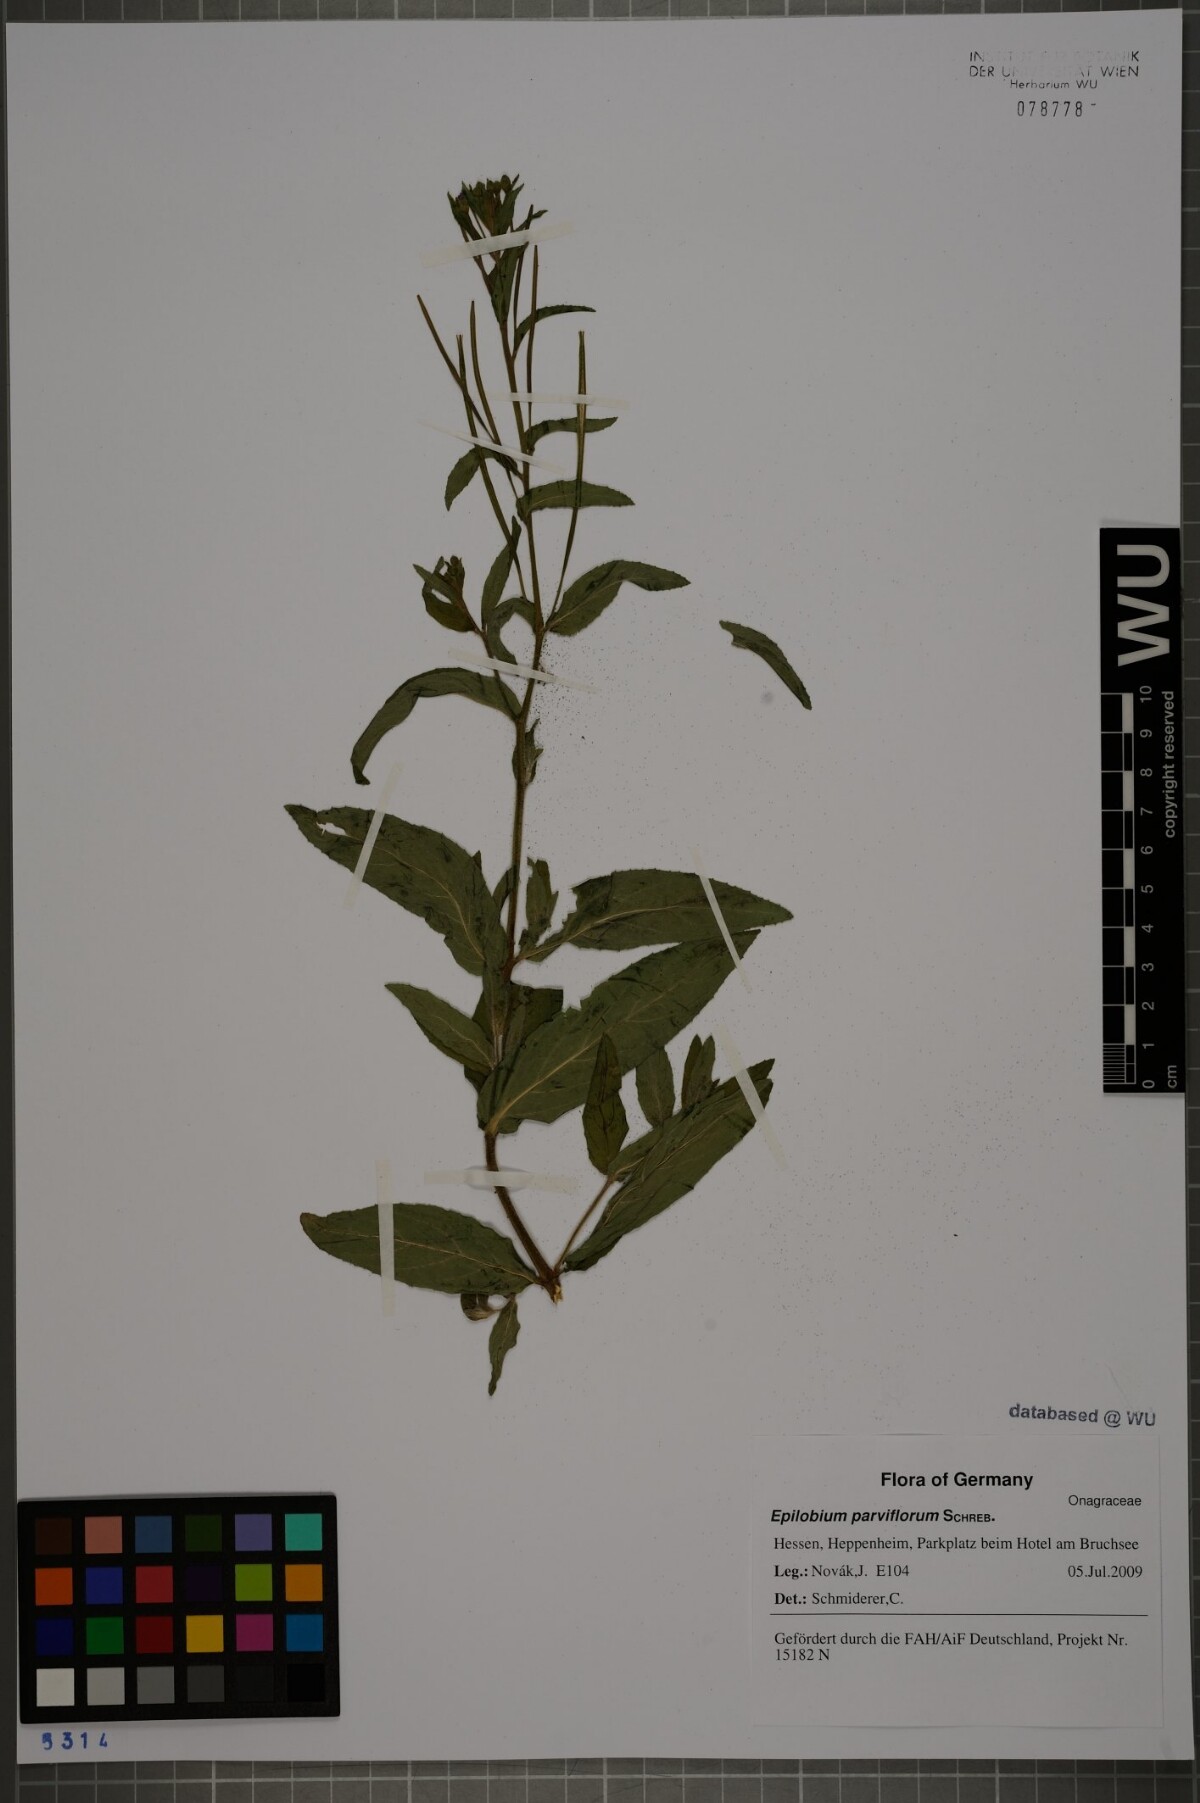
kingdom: Plantae
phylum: Tracheophyta
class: Magnoliopsida
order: Myrtales
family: Onagraceae
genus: Epilobium
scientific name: Epilobium parviflorum
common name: Hoary willowherb
